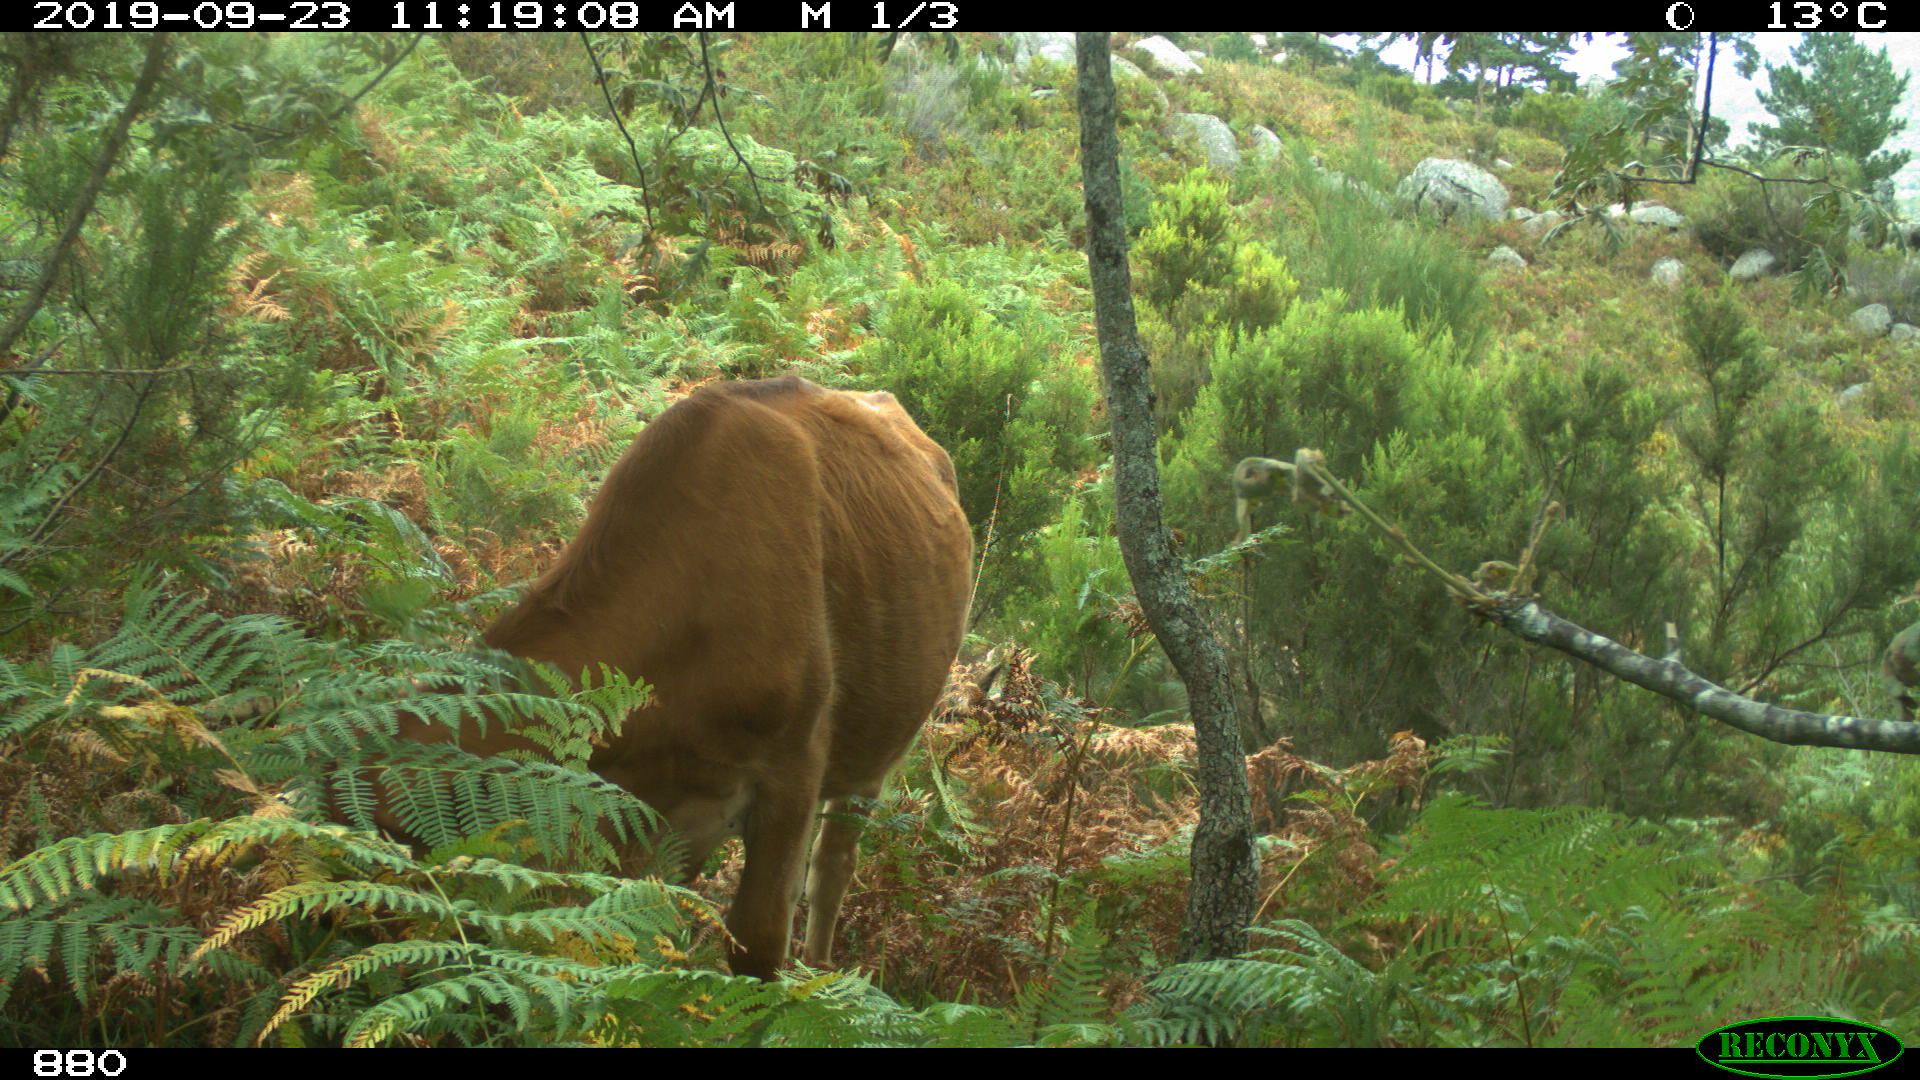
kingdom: Animalia
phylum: Chordata
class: Mammalia
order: Artiodactyla
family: Bovidae
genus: Bos
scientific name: Bos taurus
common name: Domesticated cattle
